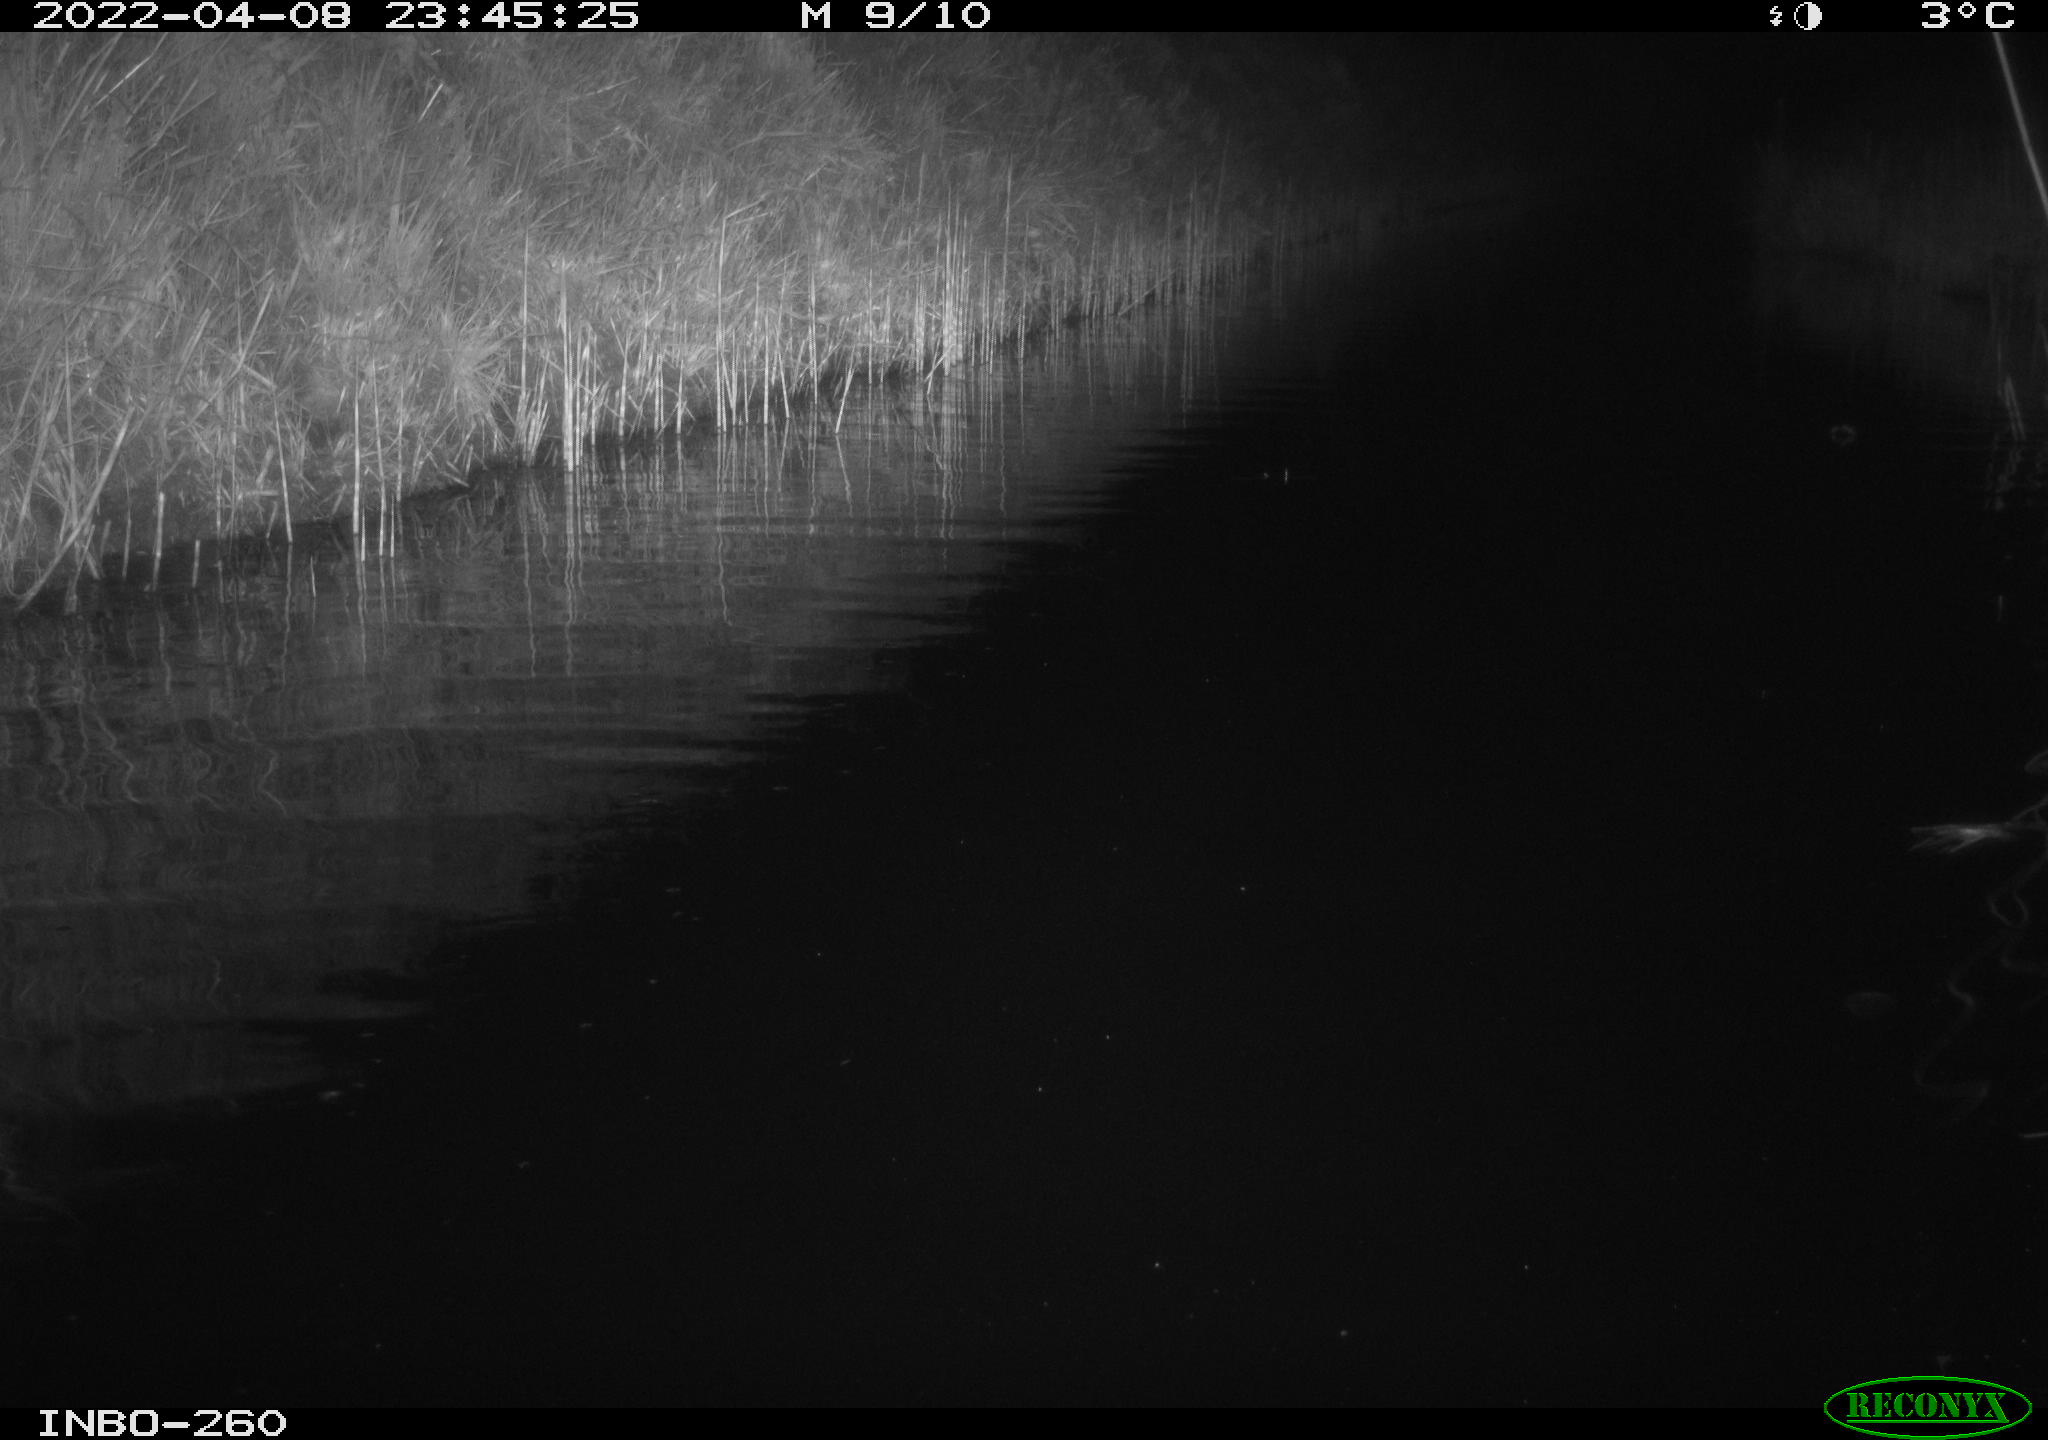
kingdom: Animalia
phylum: Chordata
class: Mammalia
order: Rodentia
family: Cricetidae
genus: Ondatra
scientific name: Ondatra zibethicus
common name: Muskrat
